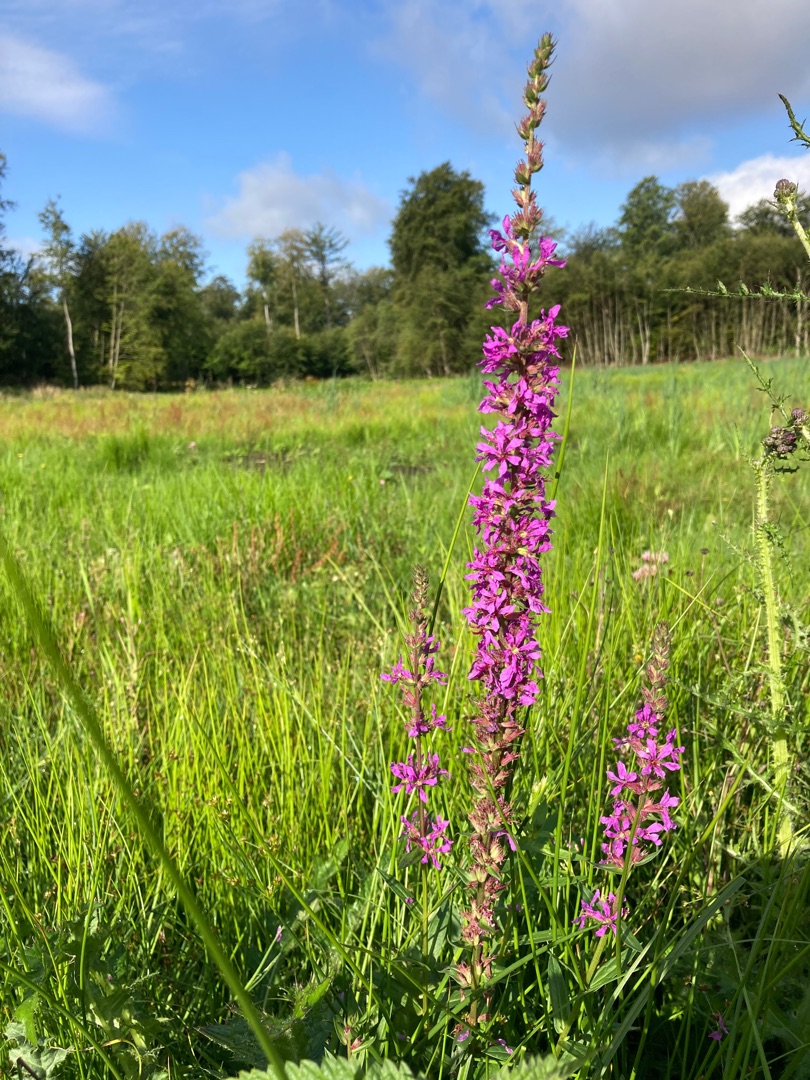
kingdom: Plantae
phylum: Tracheophyta
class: Magnoliopsida
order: Myrtales
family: Lythraceae
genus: Lythrum
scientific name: Lythrum salicaria
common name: Kattehale
